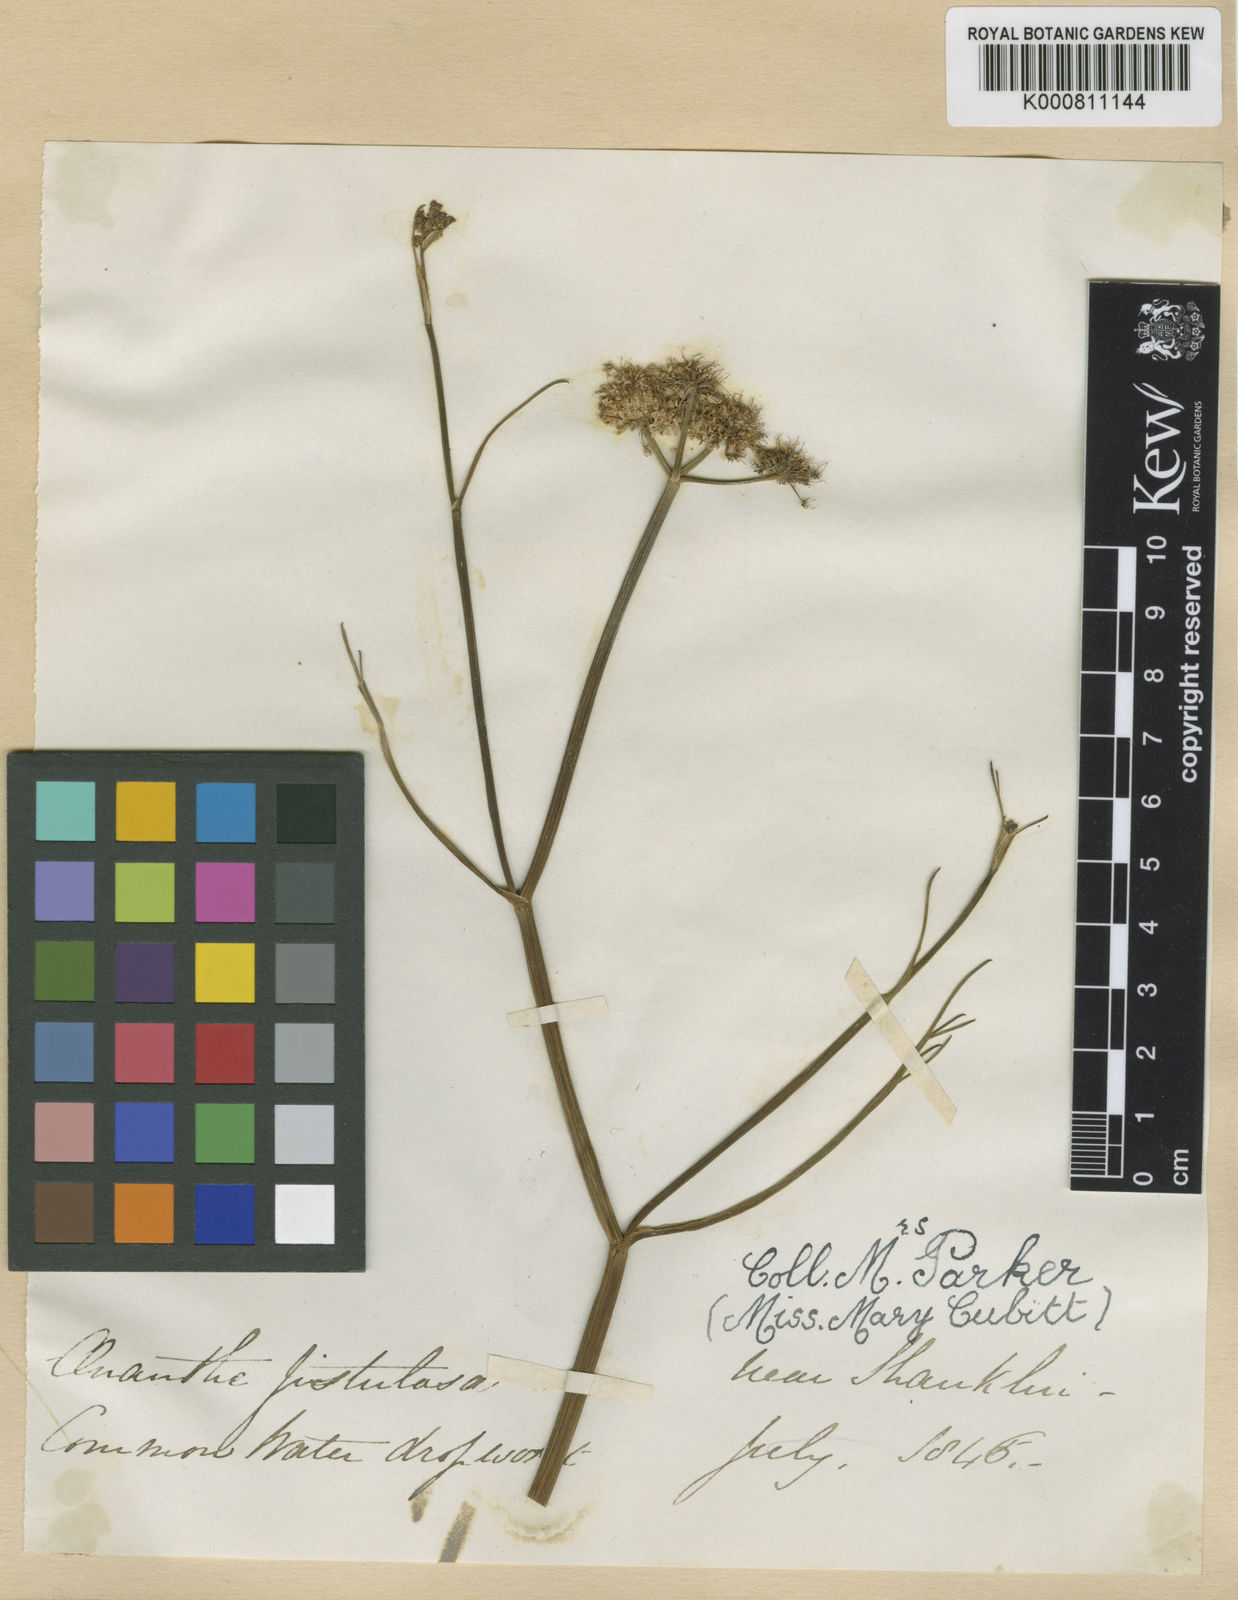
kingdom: Plantae
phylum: Tracheophyta
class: Magnoliopsida
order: Apiales
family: Apiaceae
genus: Oenanthe
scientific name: Oenanthe fistulosa
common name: Tubular water-dropwort
